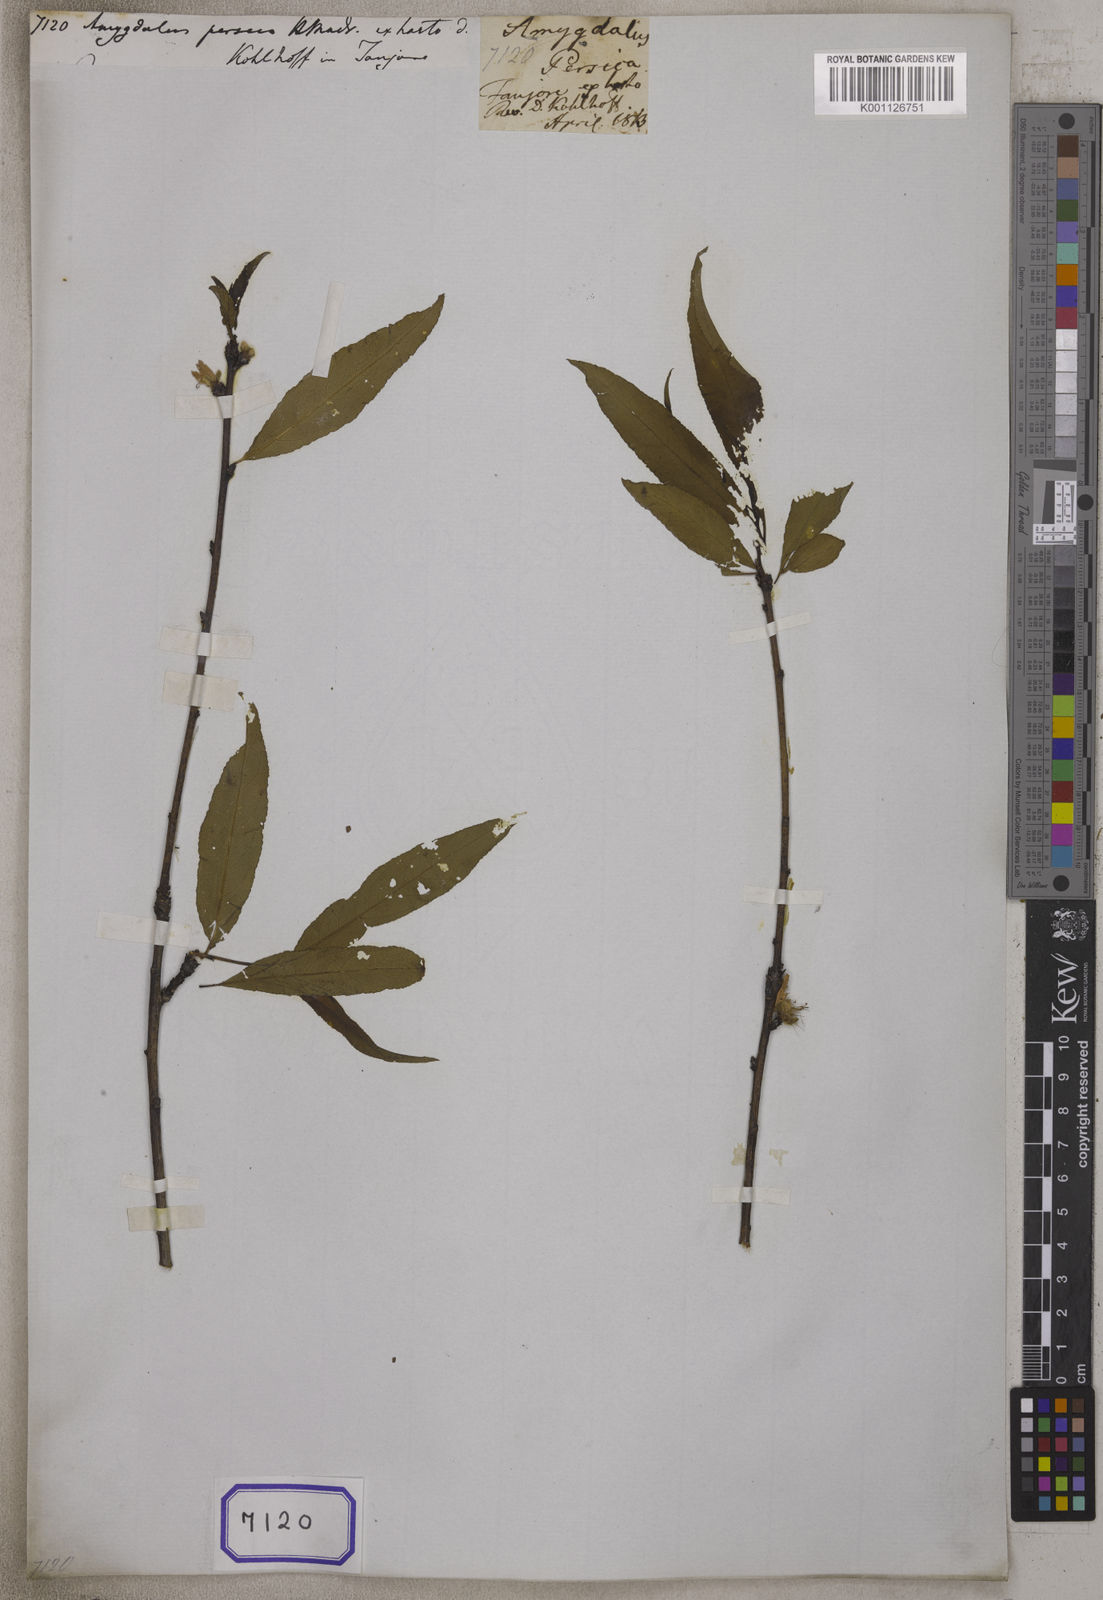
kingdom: Plantae
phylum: Tracheophyta
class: Magnoliopsida
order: Rosales
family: Rosaceae
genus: Prunus
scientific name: Prunus persica
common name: Peach
